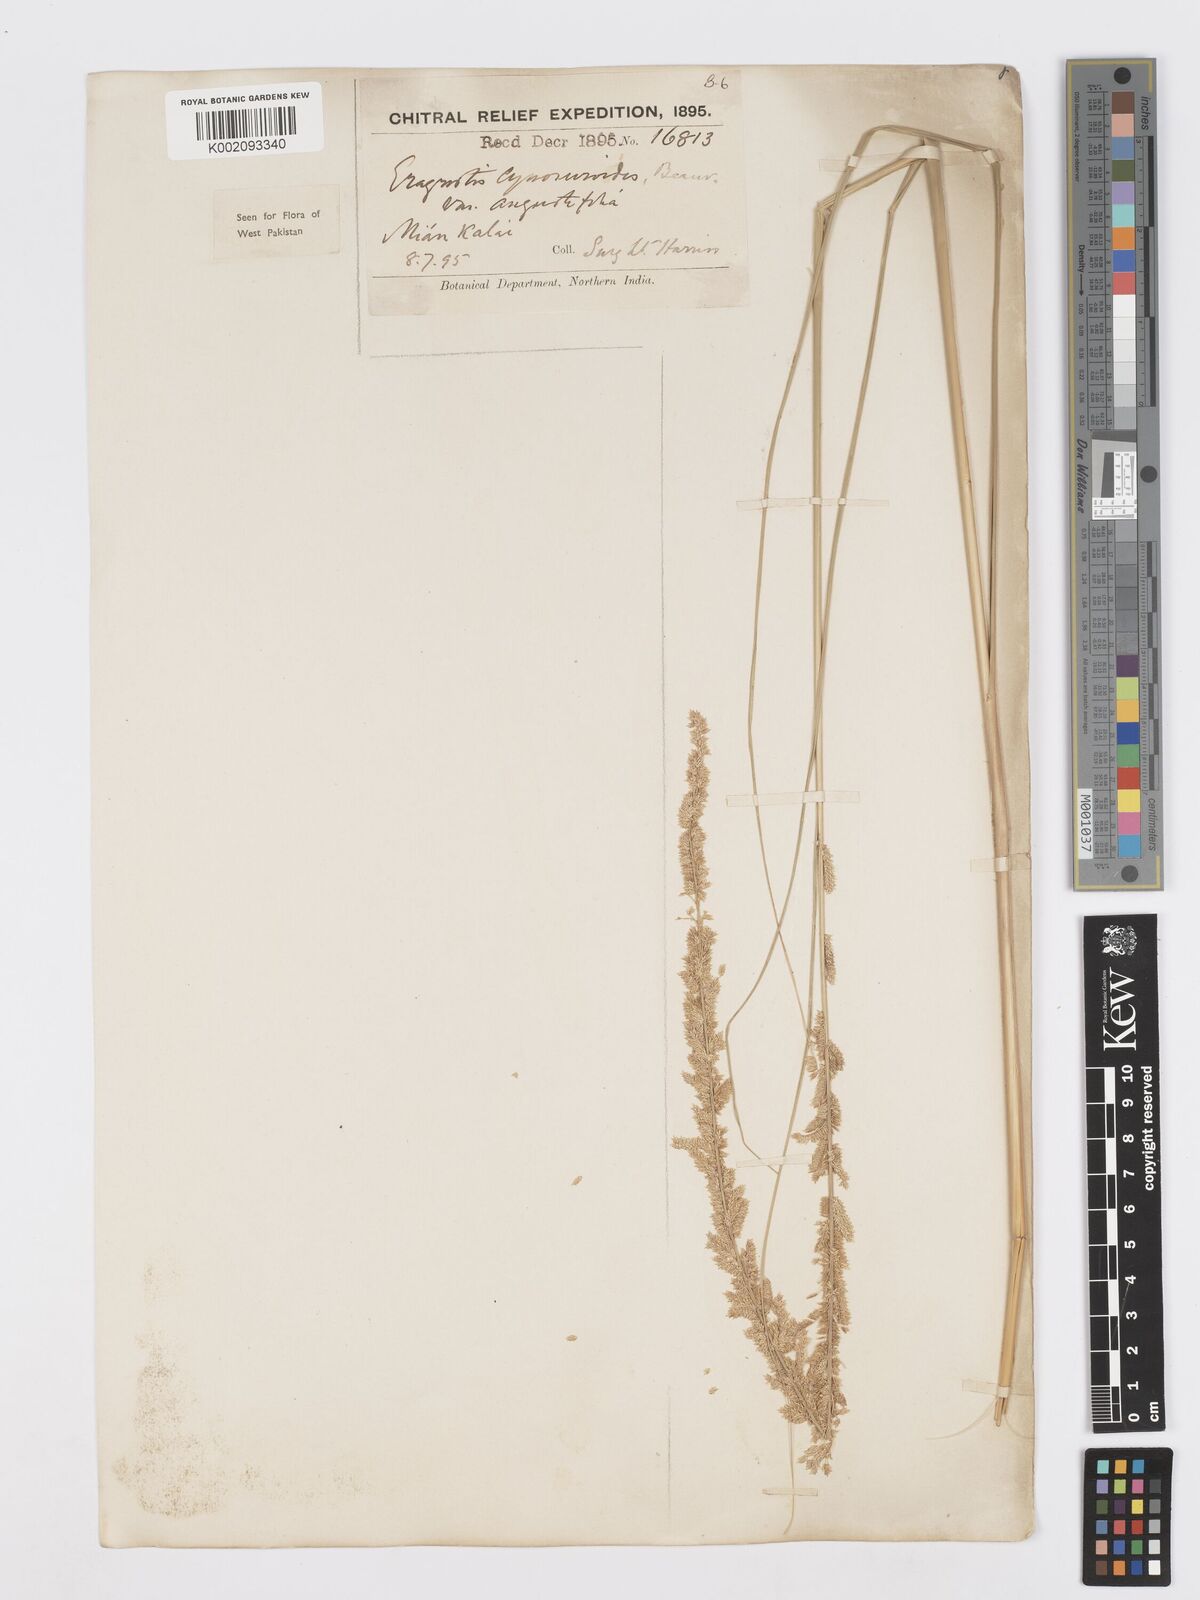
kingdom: Plantae
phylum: Tracheophyta
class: Liliopsida
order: Poales
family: Poaceae
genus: Desmostachya
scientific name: Desmostachya bipinnata
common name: Crowfoot grass
